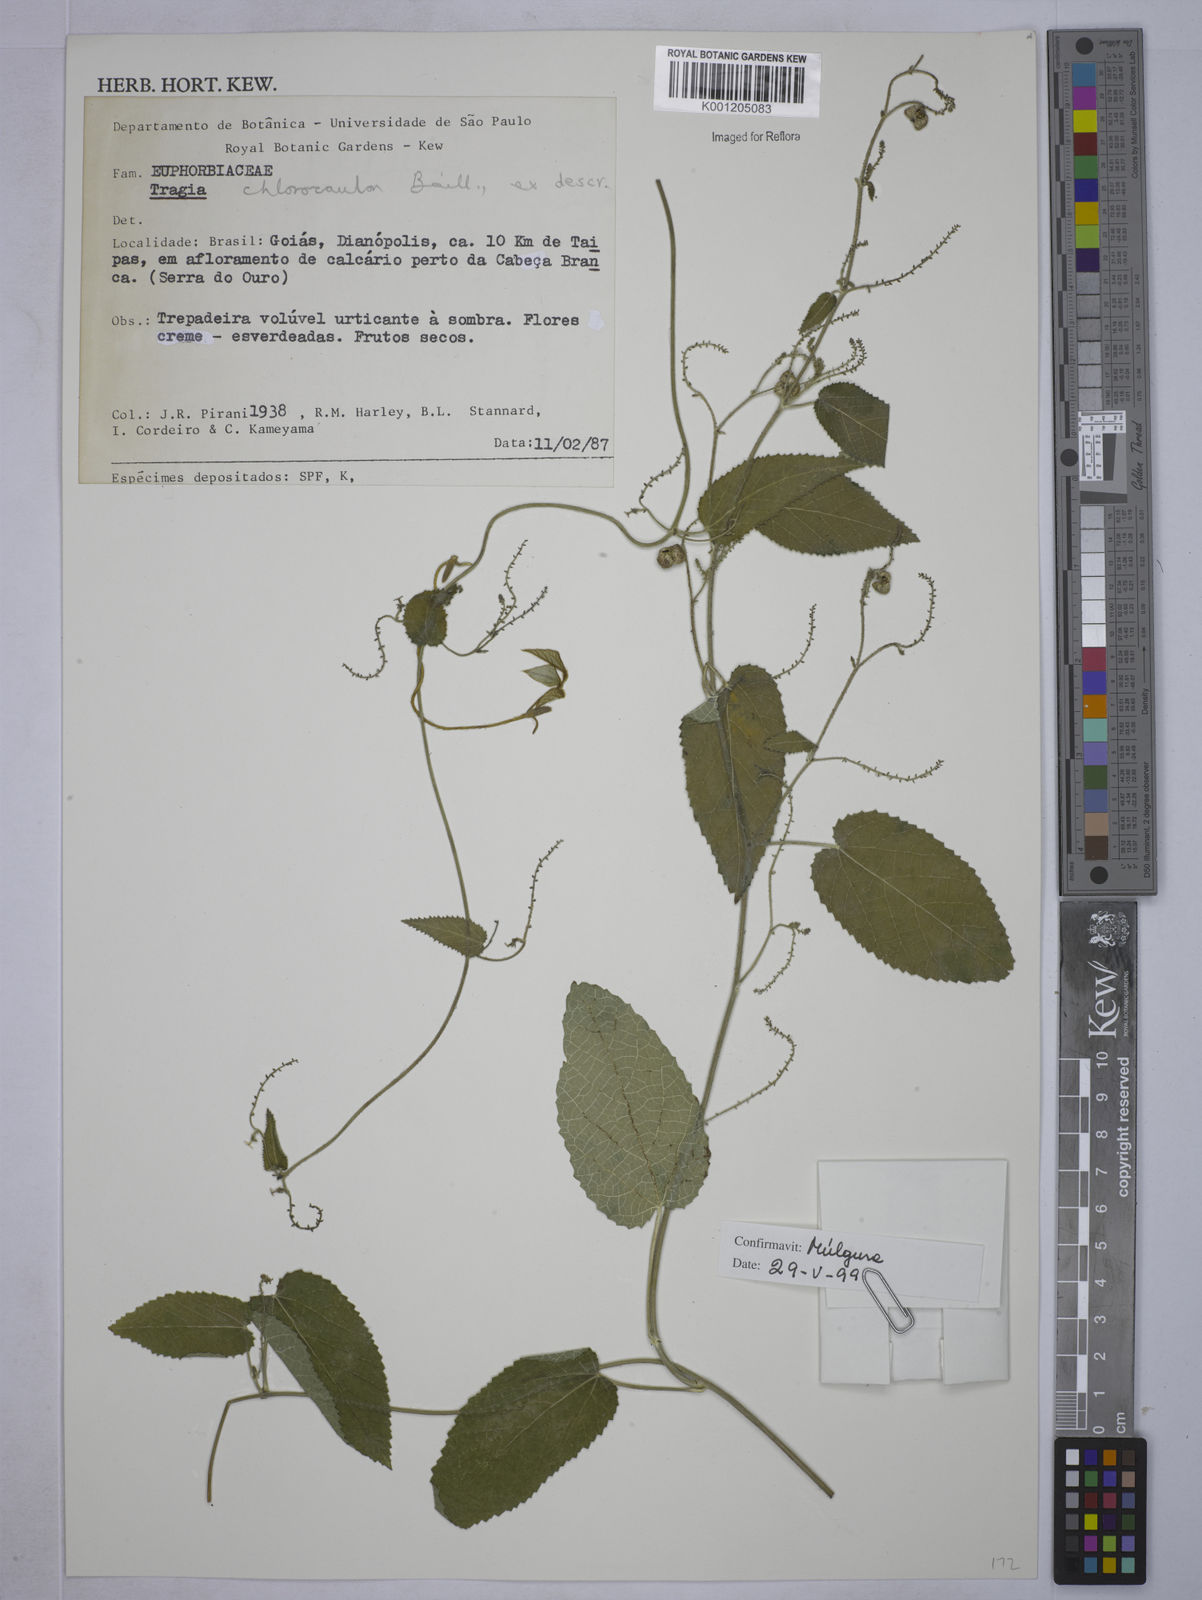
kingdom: Plantae
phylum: Tracheophyta
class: Magnoliopsida
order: Malpighiales
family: Euphorbiaceae
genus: Tragia
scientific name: Tragia chlorocaulon
